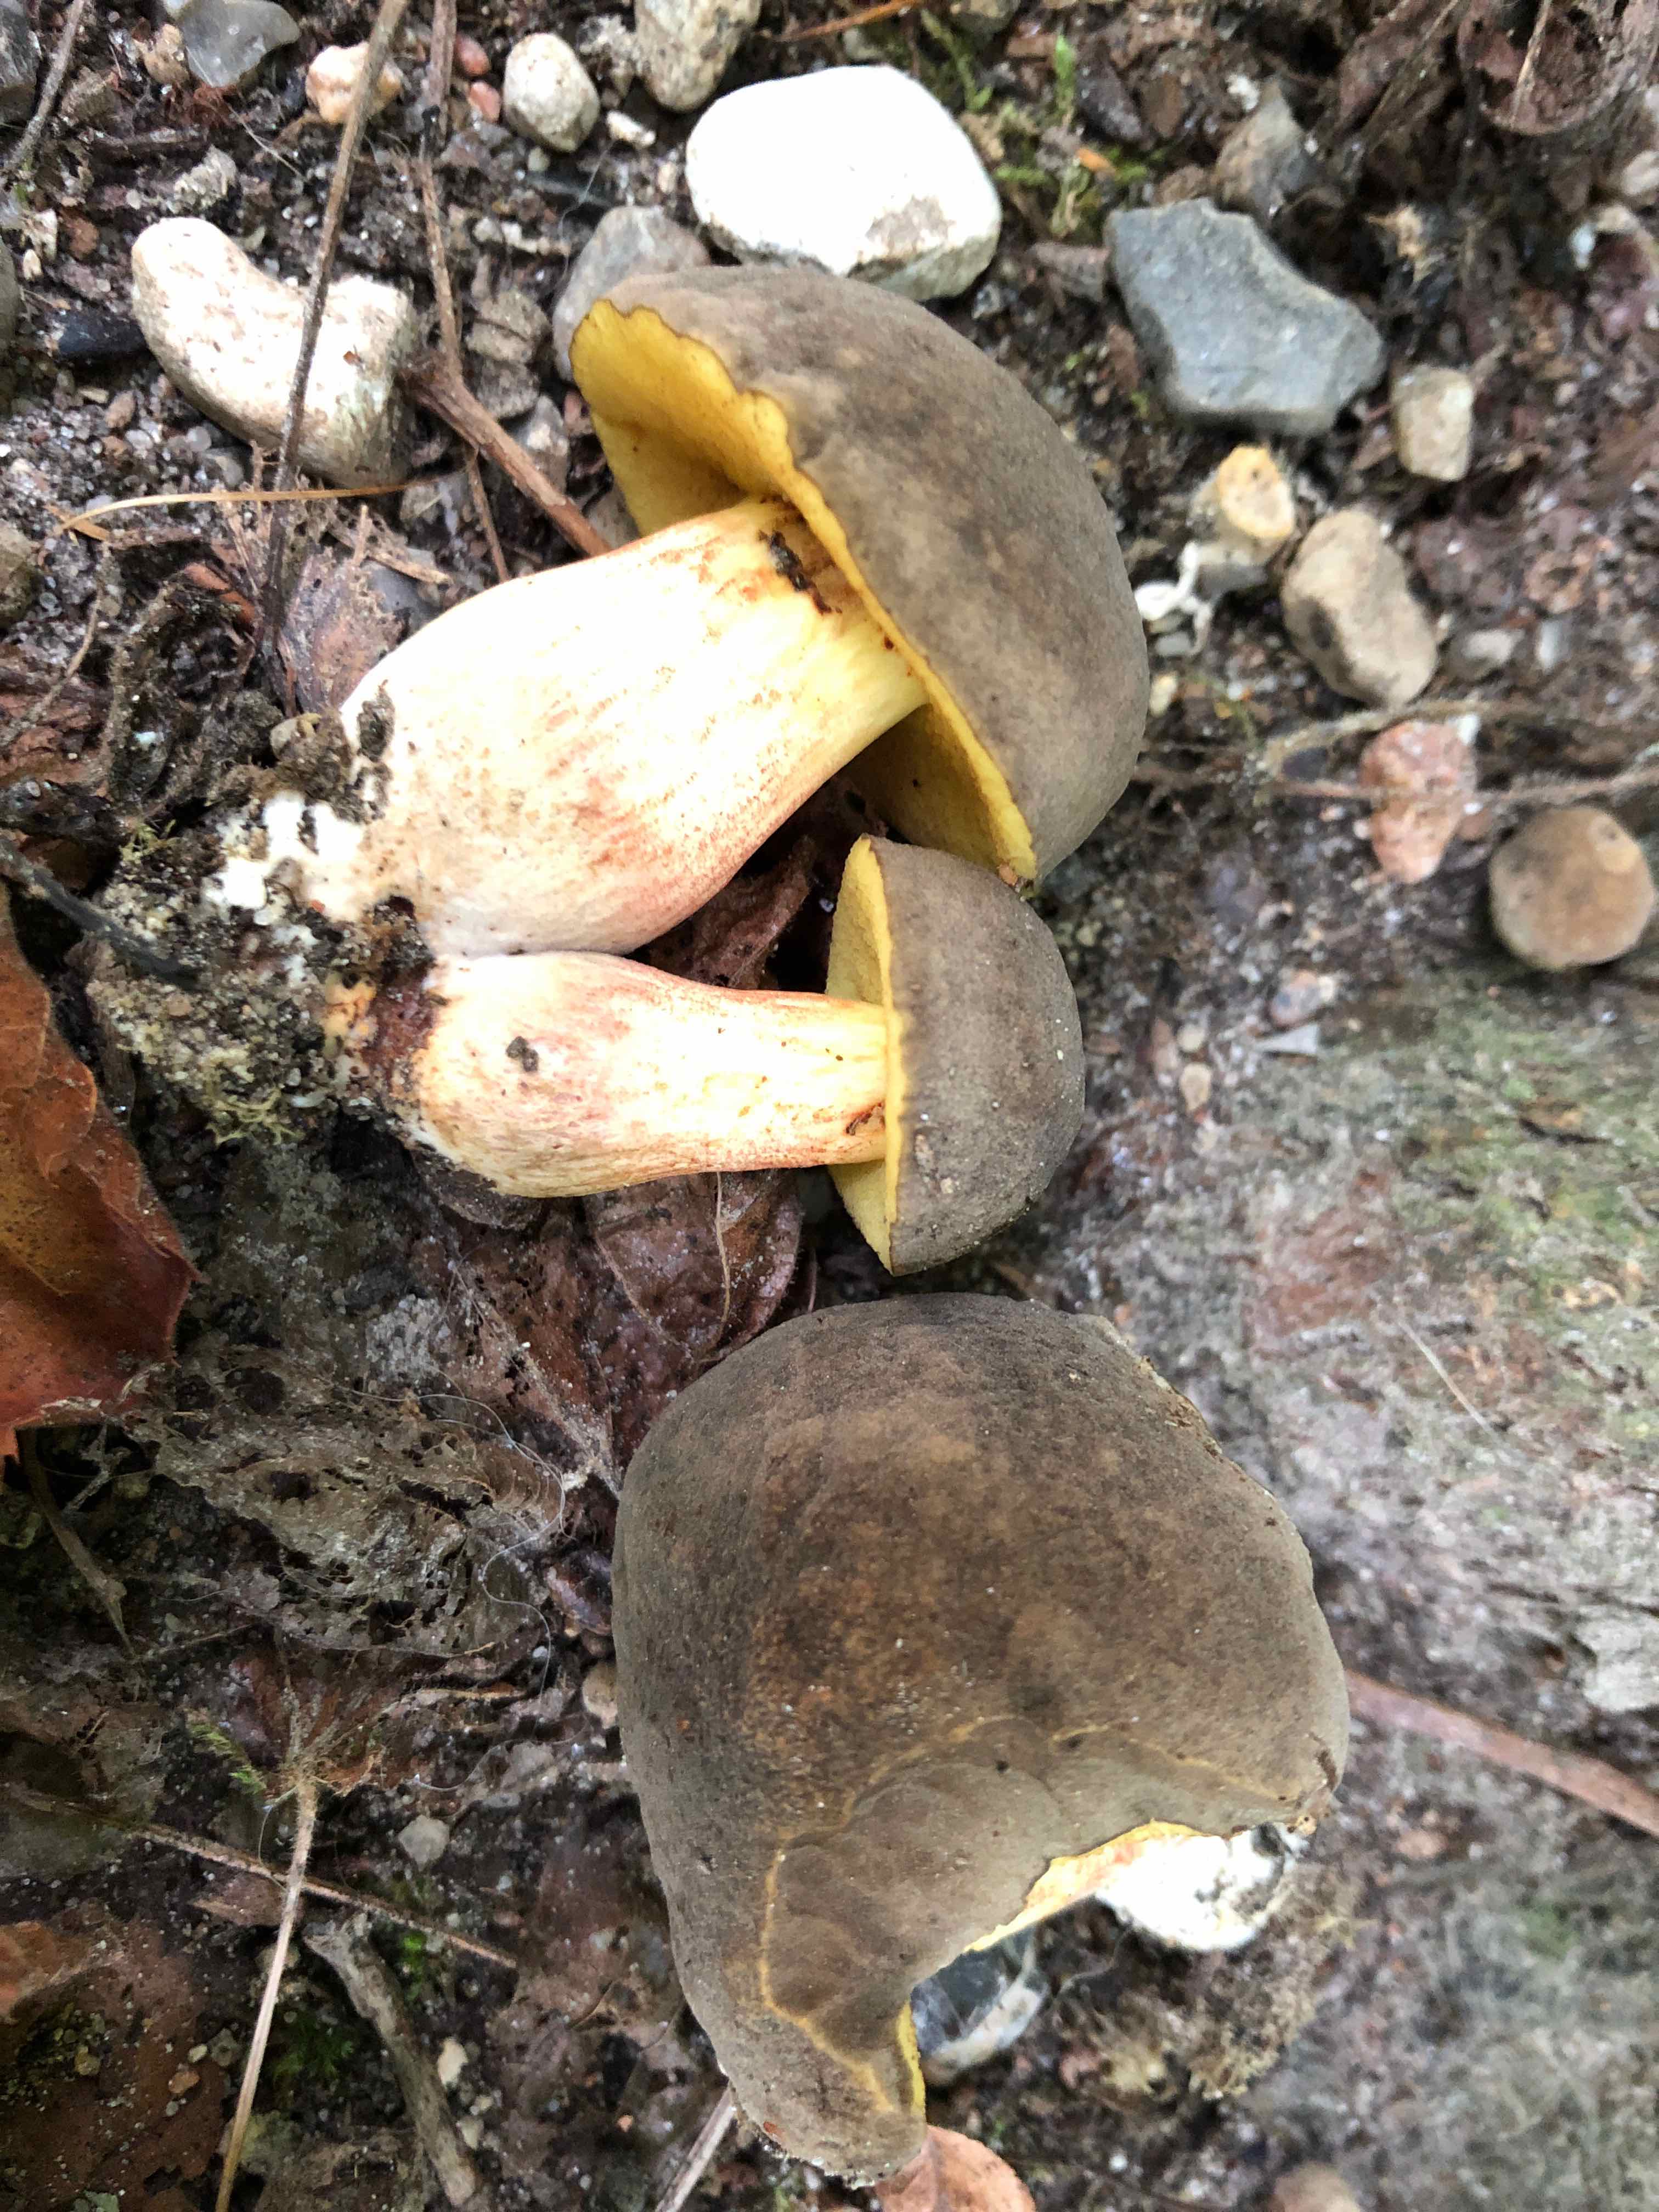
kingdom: Fungi
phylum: Basidiomycota
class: Agaricomycetes
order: Boletales
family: Boletaceae
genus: Xerocomus
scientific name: Xerocomus subtomentosus
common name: filtet rørhat
